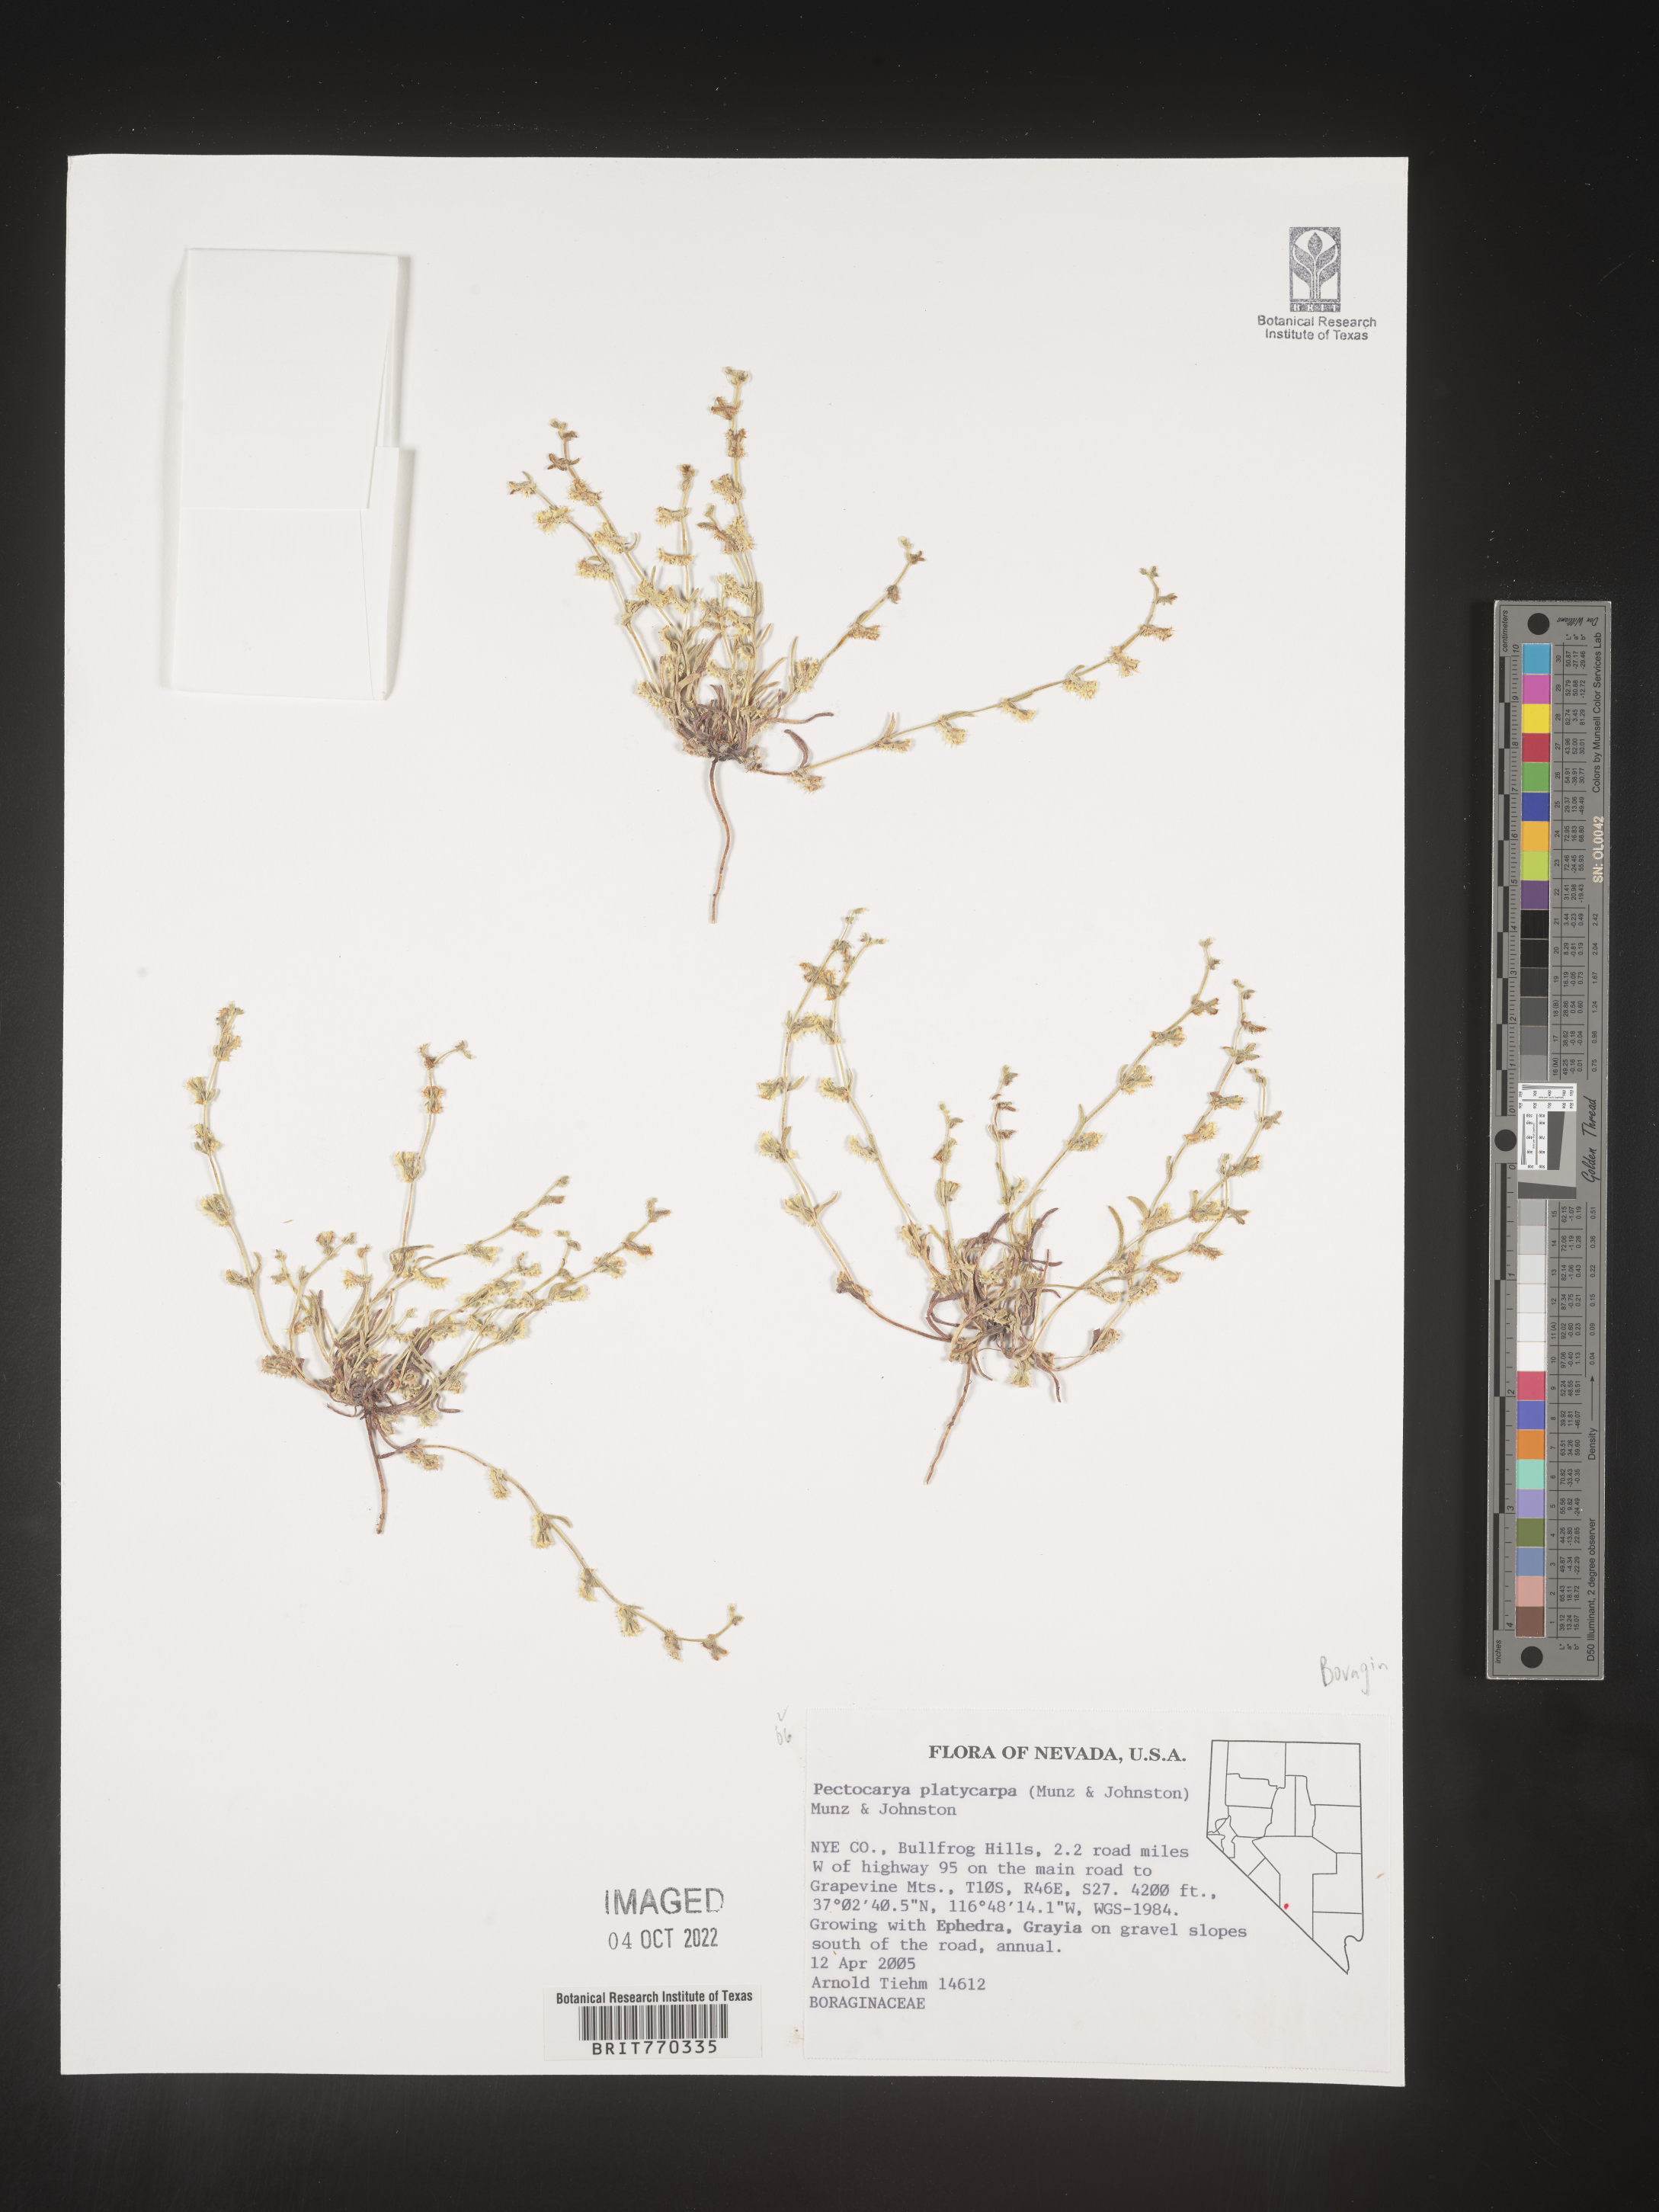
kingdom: Plantae
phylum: Tracheophyta
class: Magnoliopsida
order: Boraginales
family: Boraginaceae
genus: Pectocarya
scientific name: Pectocarya
